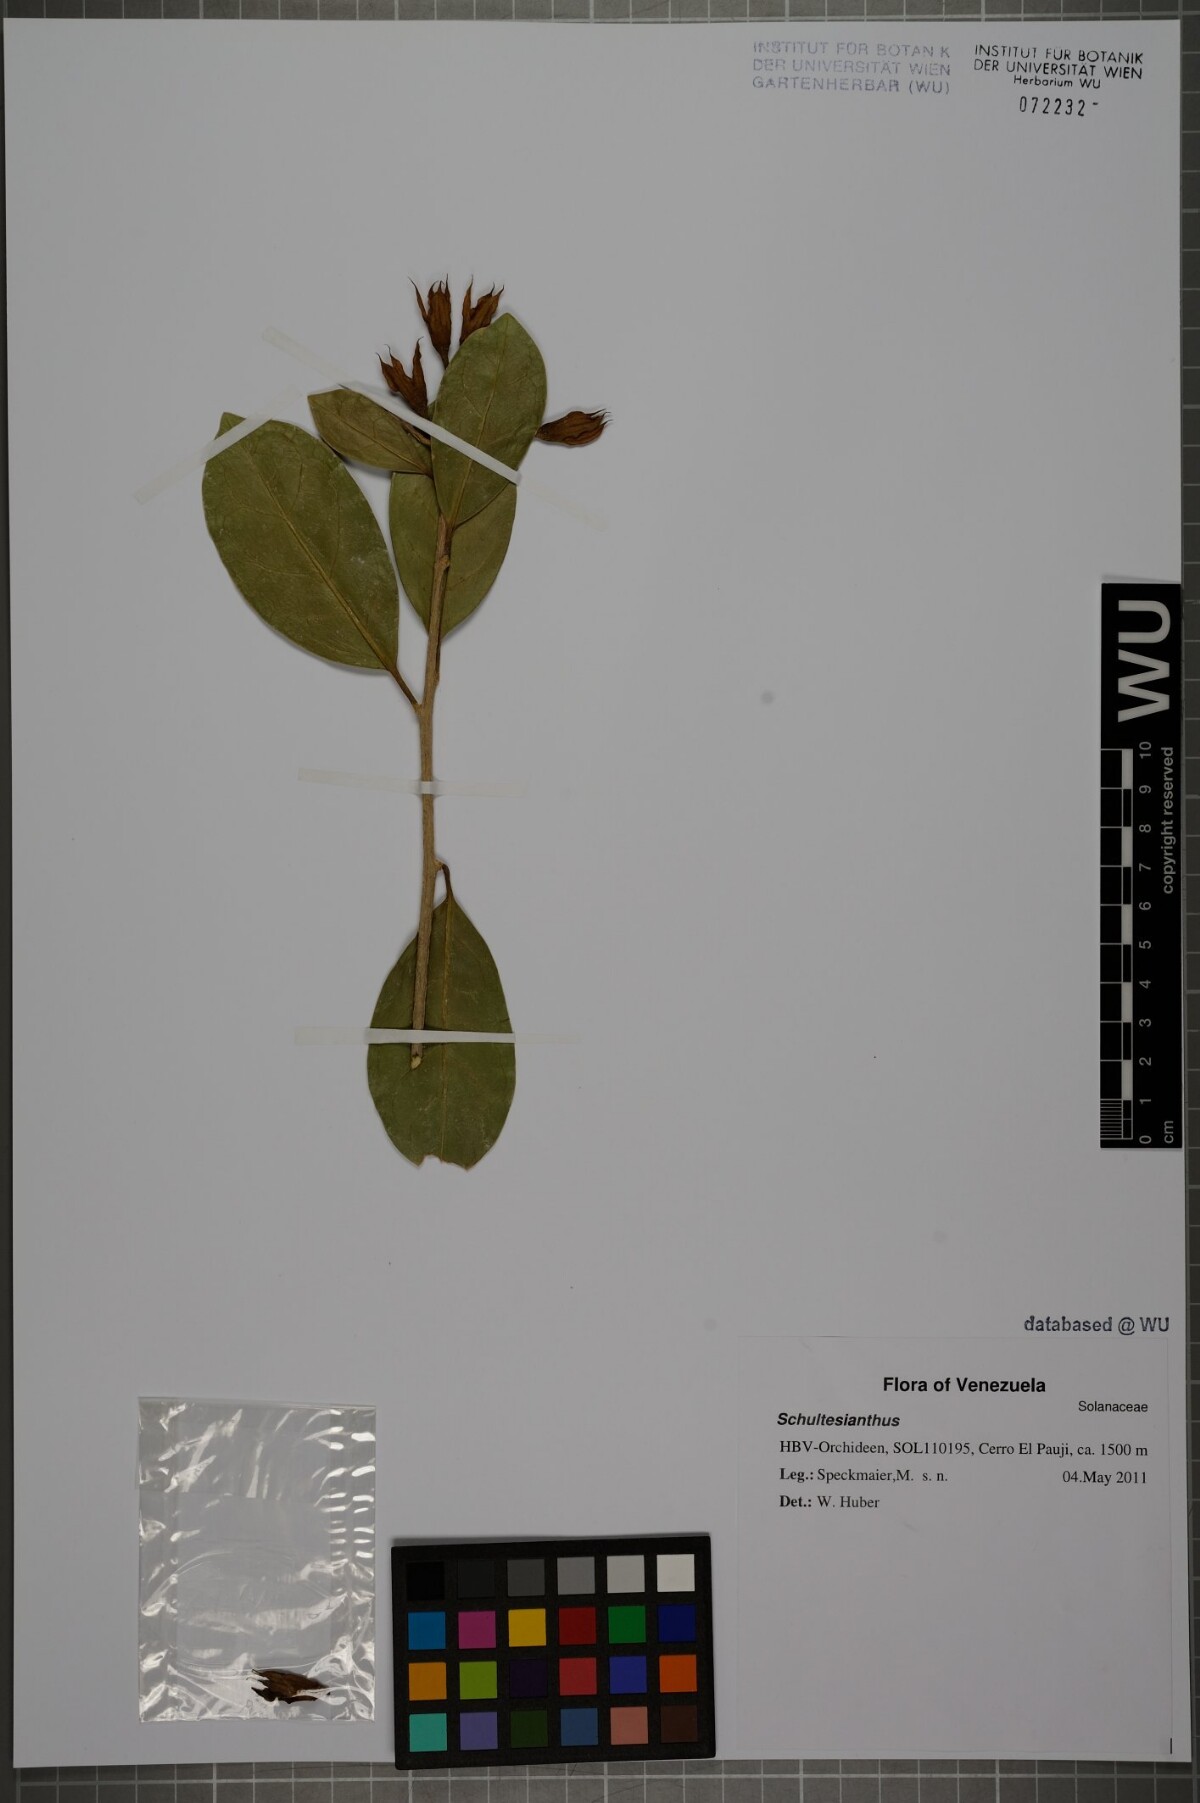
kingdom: Plantae
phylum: Tracheophyta
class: Magnoliopsida
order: Solanales
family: Solanaceae
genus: Schultesianthus
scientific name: Schultesianthus
